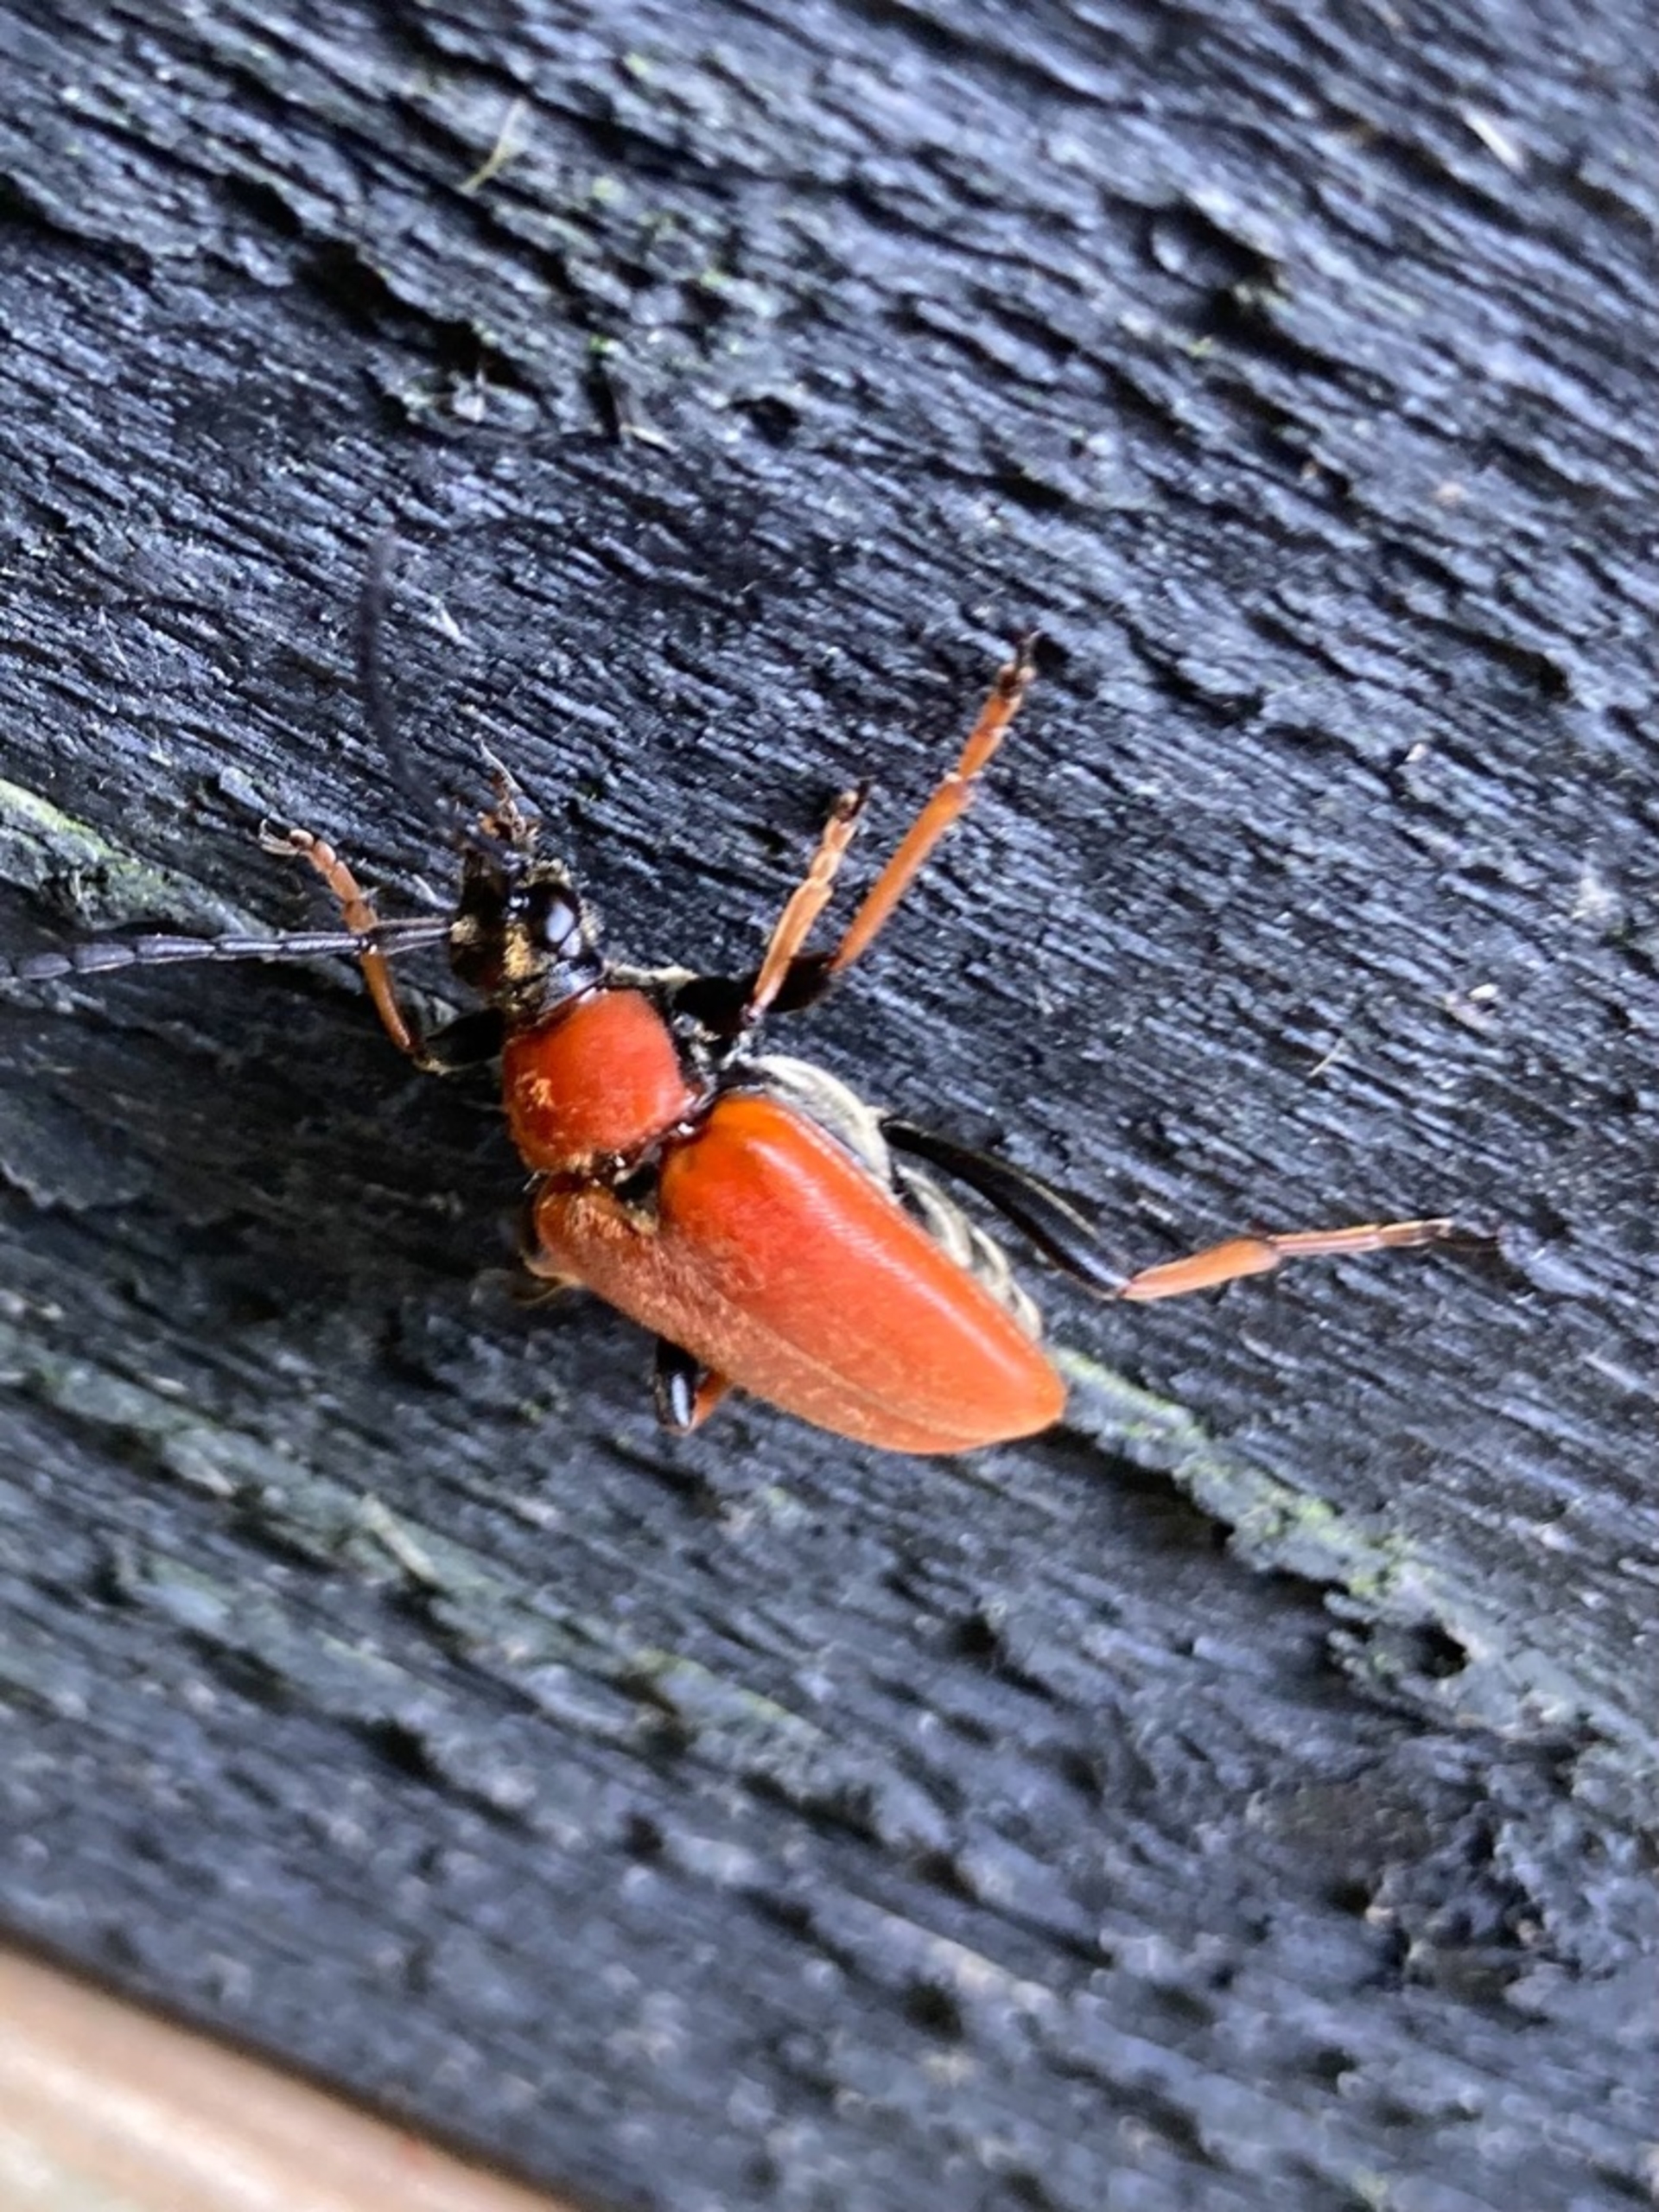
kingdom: Animalia
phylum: Arthropoda
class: Insecta
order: Coleoptera
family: Cerambycidae
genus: Stictoleptura
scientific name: Stictoleptura rubra
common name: Rød blomsterbuk
